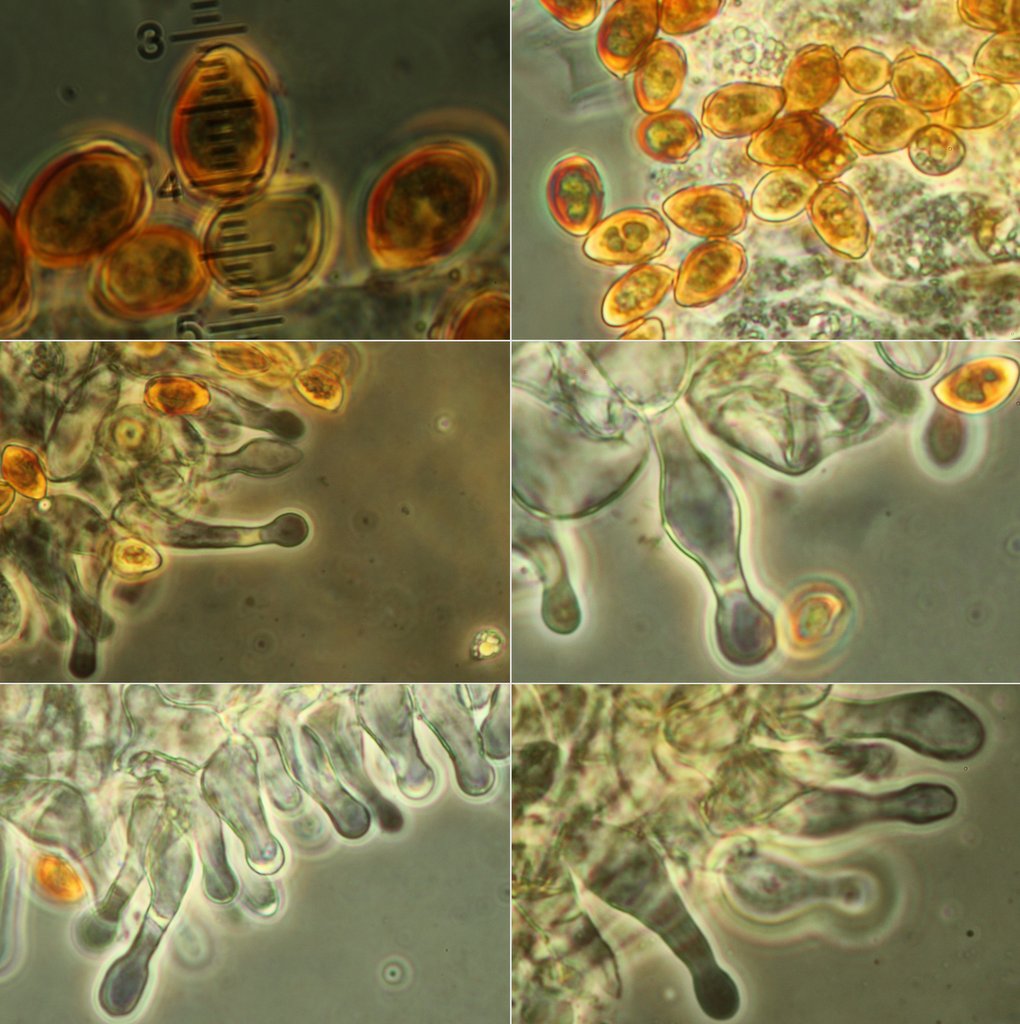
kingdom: Fungi
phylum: Basidiomycota
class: Agaricomycetes
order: Agaricales
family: Hymenogastraceae
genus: Galerina
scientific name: Galerina sphagnicola
